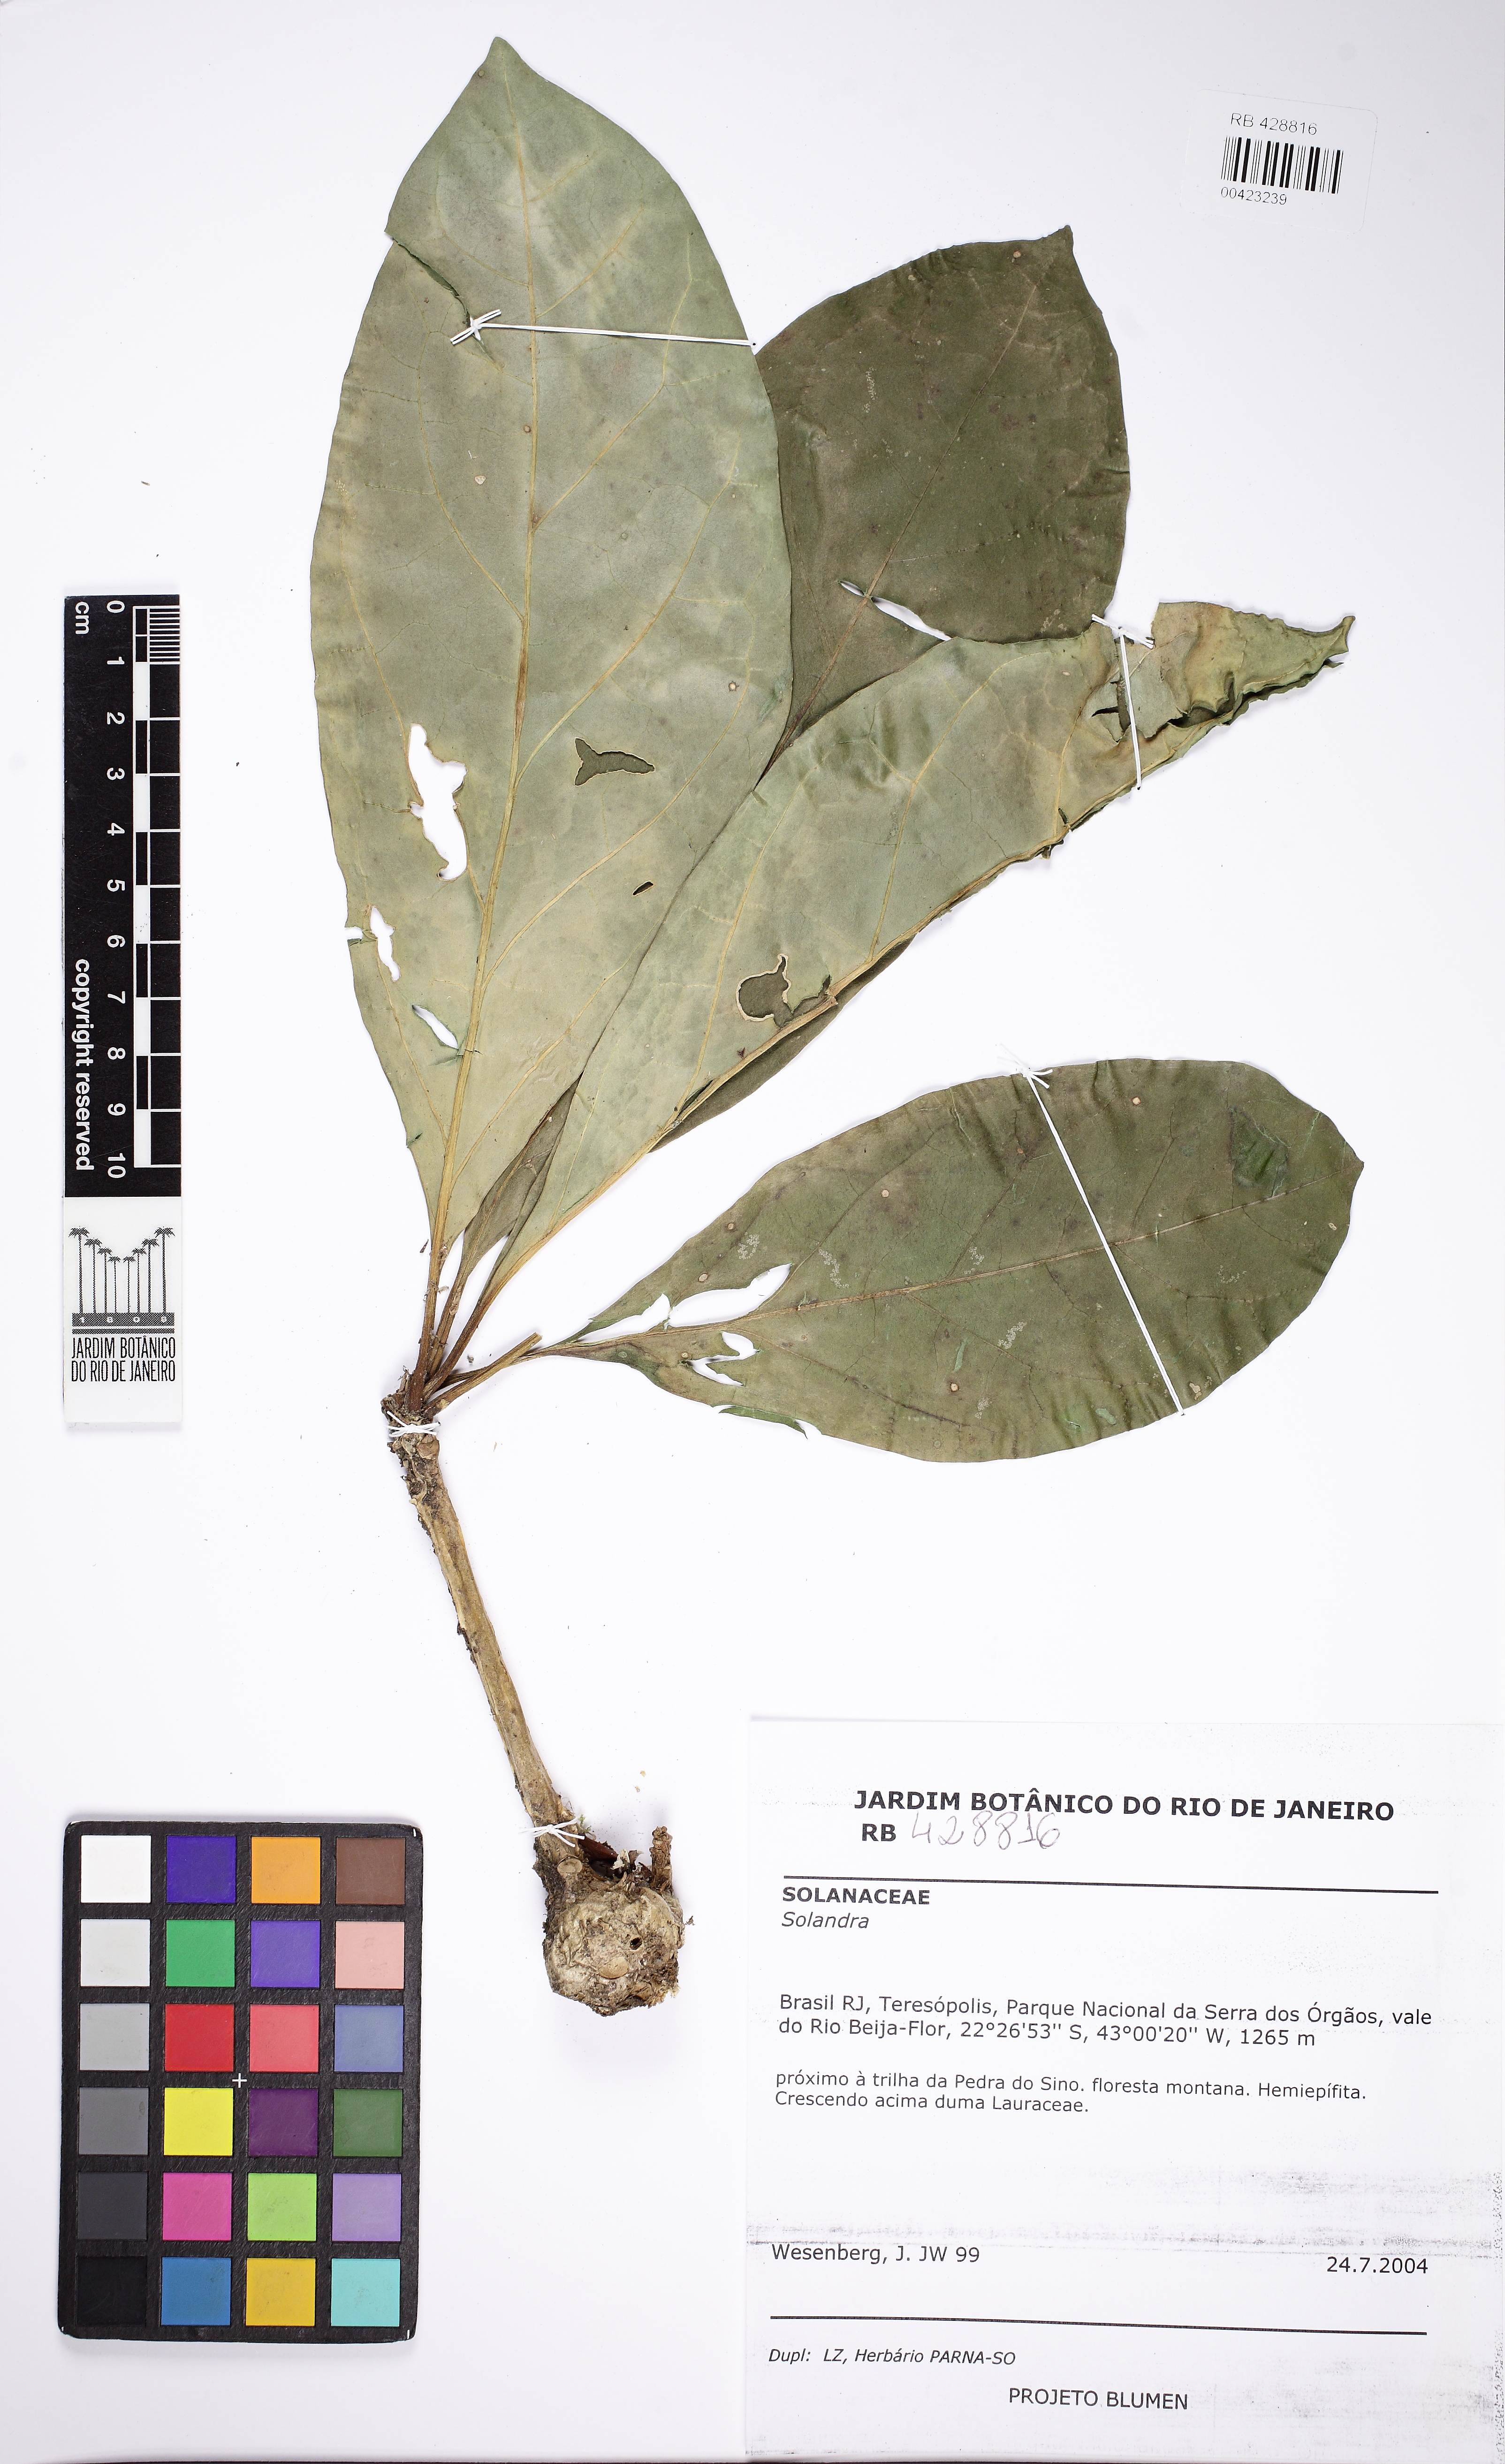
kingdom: Plantae
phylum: Tracheophyta
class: Magnoliopsida
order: Solanales
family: Solanaceae
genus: Solandra
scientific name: Solandra
